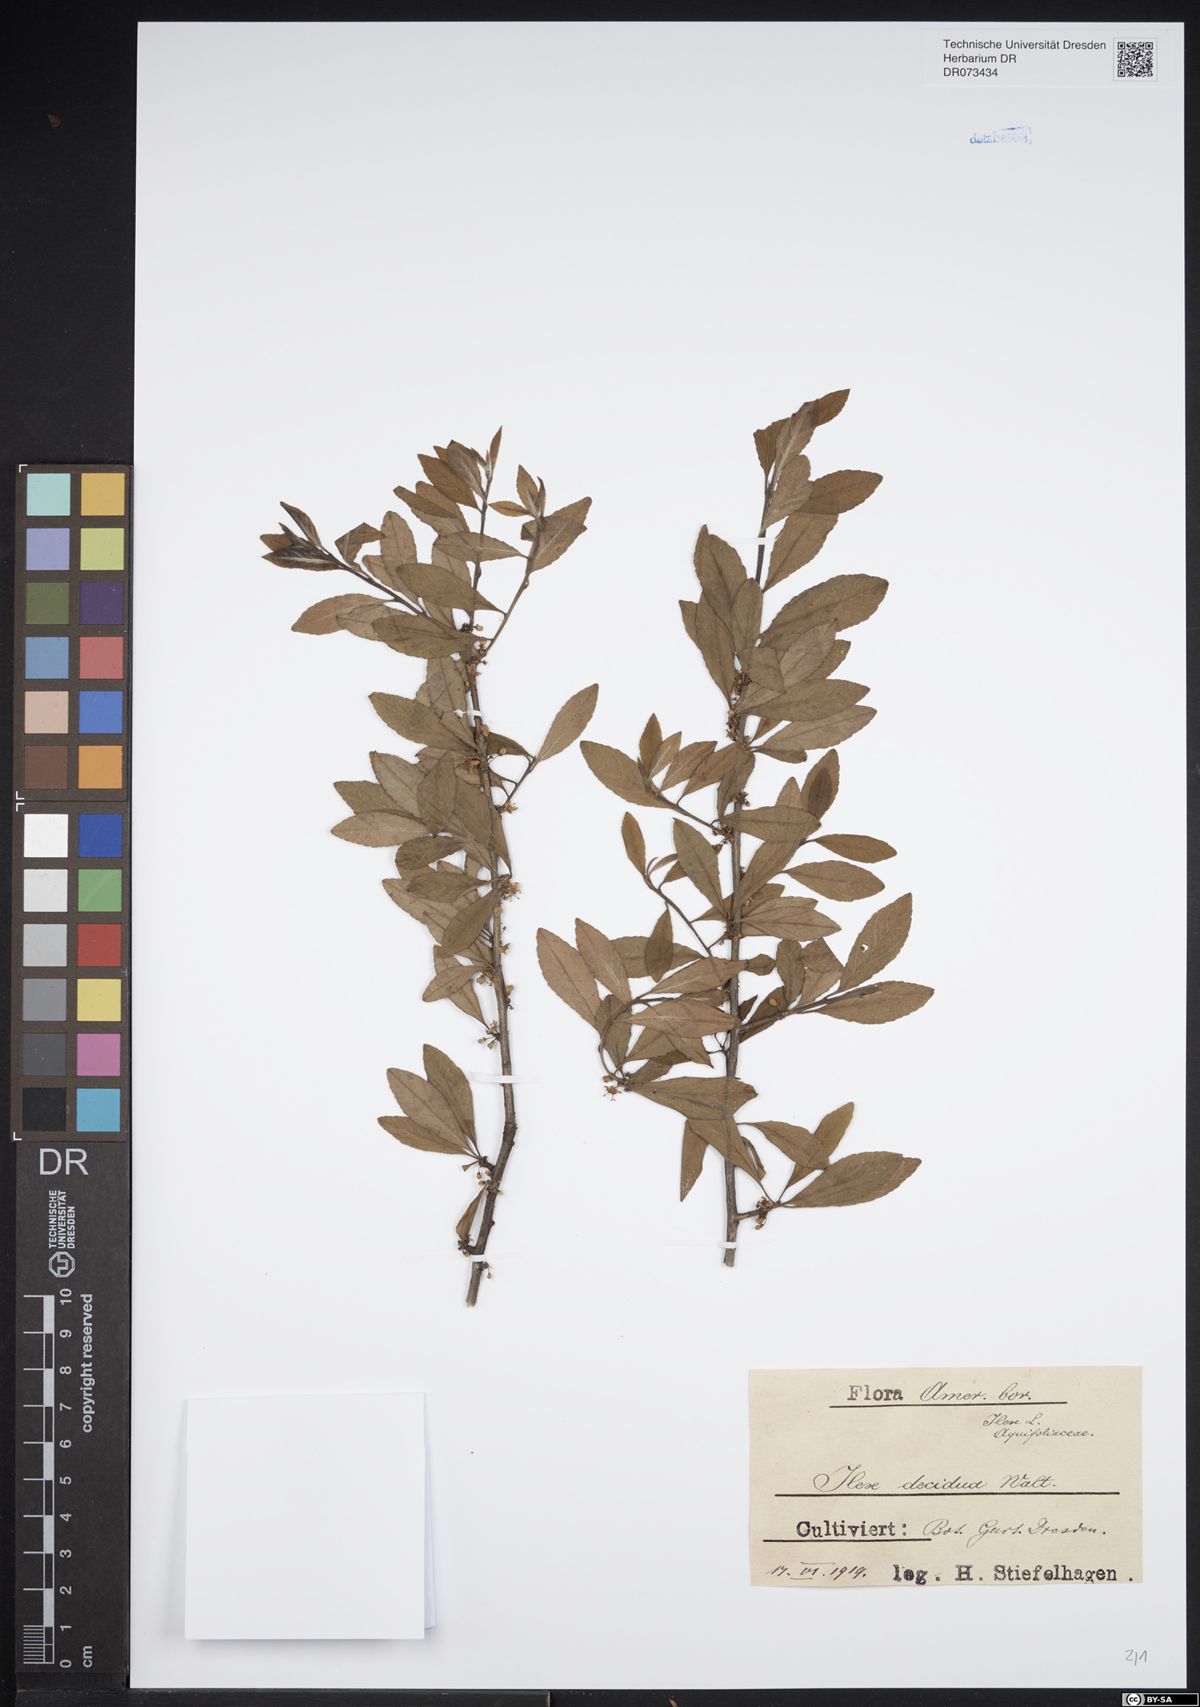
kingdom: Plantae
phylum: Tracheophyta
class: Magnoliopsida
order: Aquifoliales
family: Aquifoliaceae
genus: Ilex
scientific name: Ilex decidua
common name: Possum-haw
